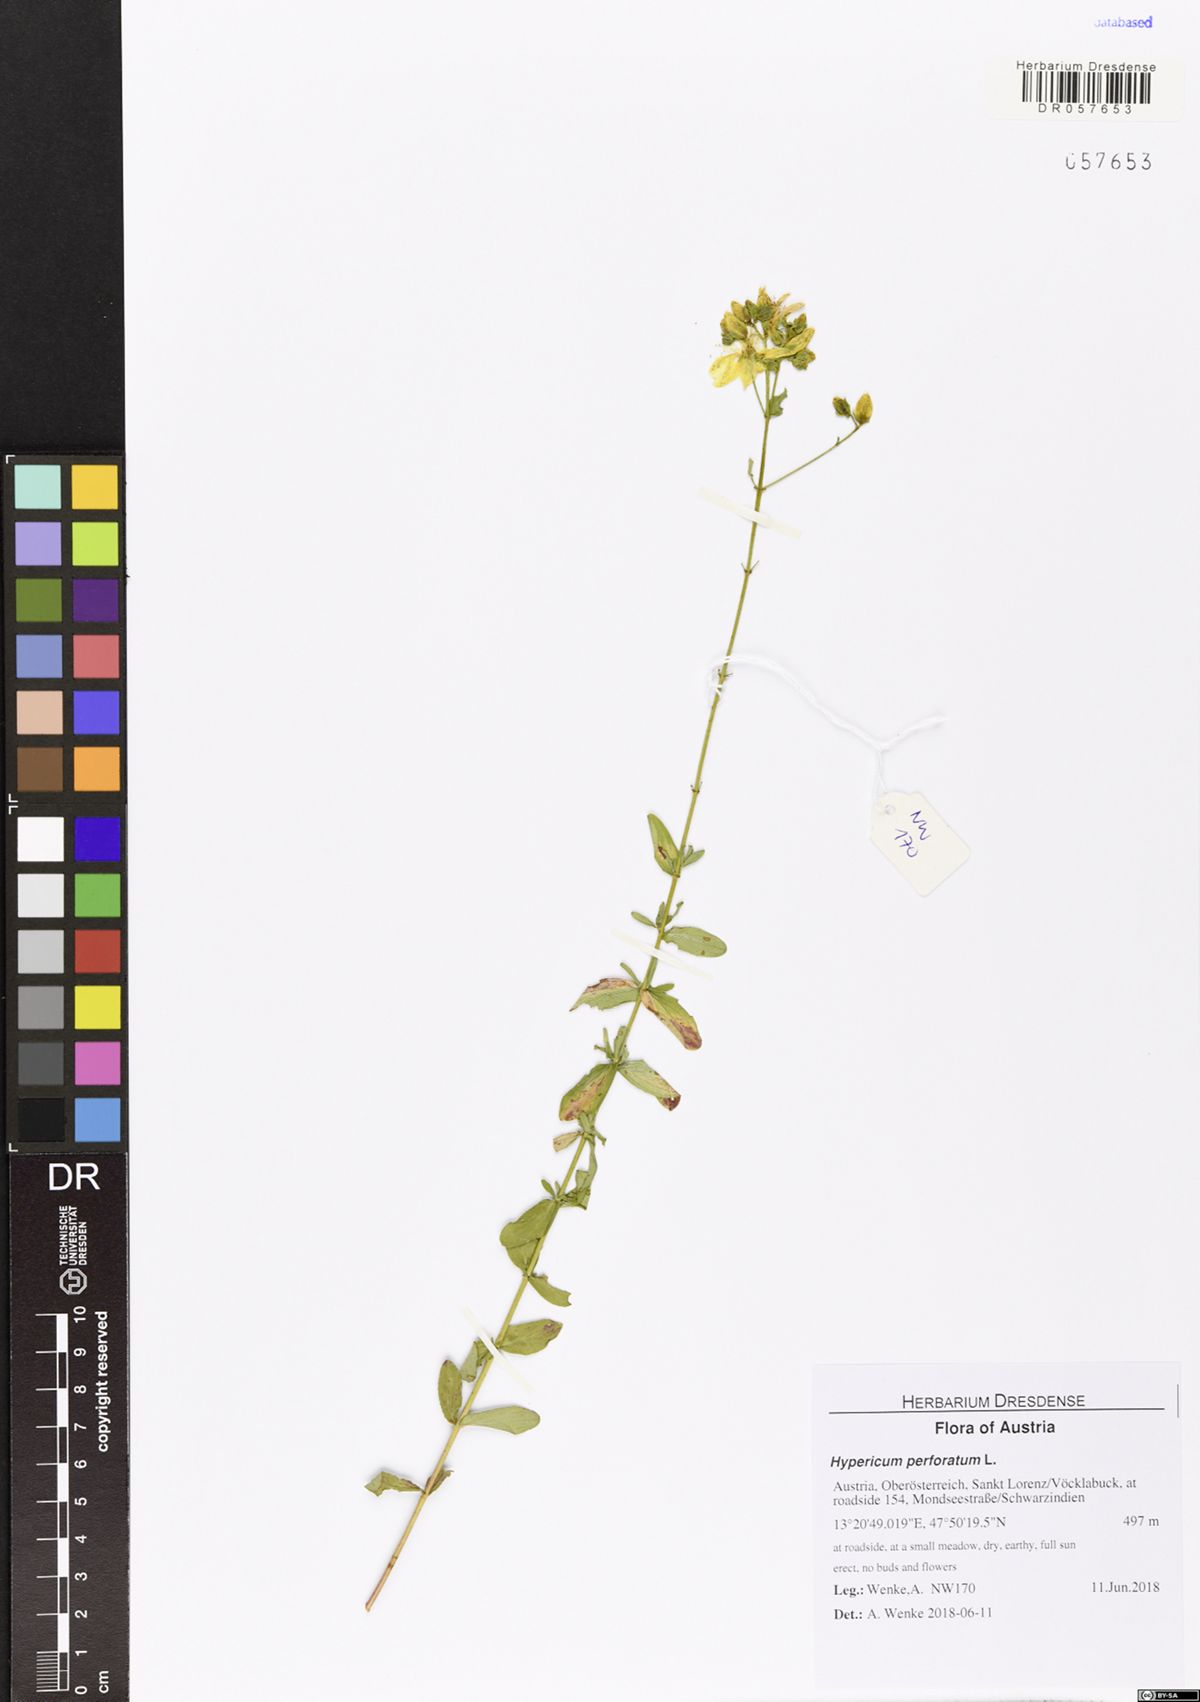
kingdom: Plantae
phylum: Tracheophyta
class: Magnoliopsida
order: Malpighiales
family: Hypericaceae
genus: Hypericum
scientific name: Hypericum perforatum
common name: Common st. johnswort
